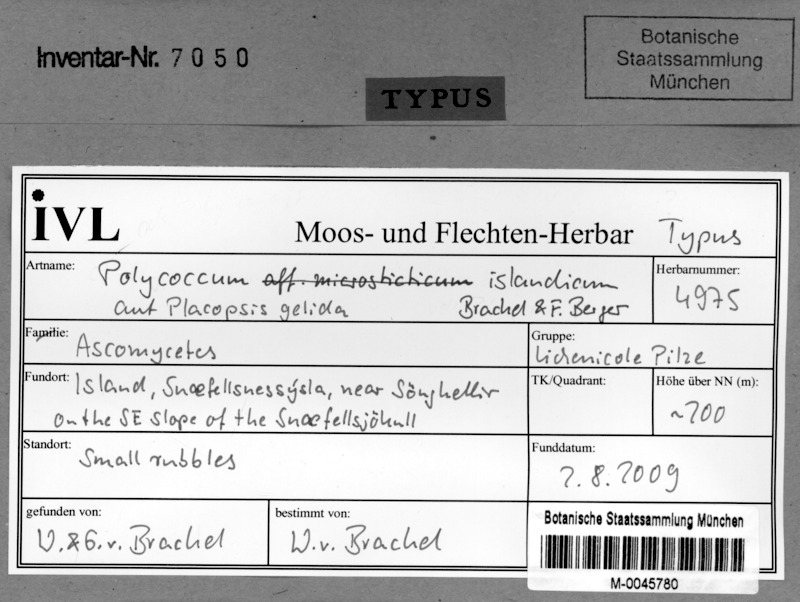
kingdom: Fungi
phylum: Ascomycota
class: Dothideomycetes
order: Trypetheliales
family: Polycoccaceae
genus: Polycoccum
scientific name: Polycoccum islandicum
